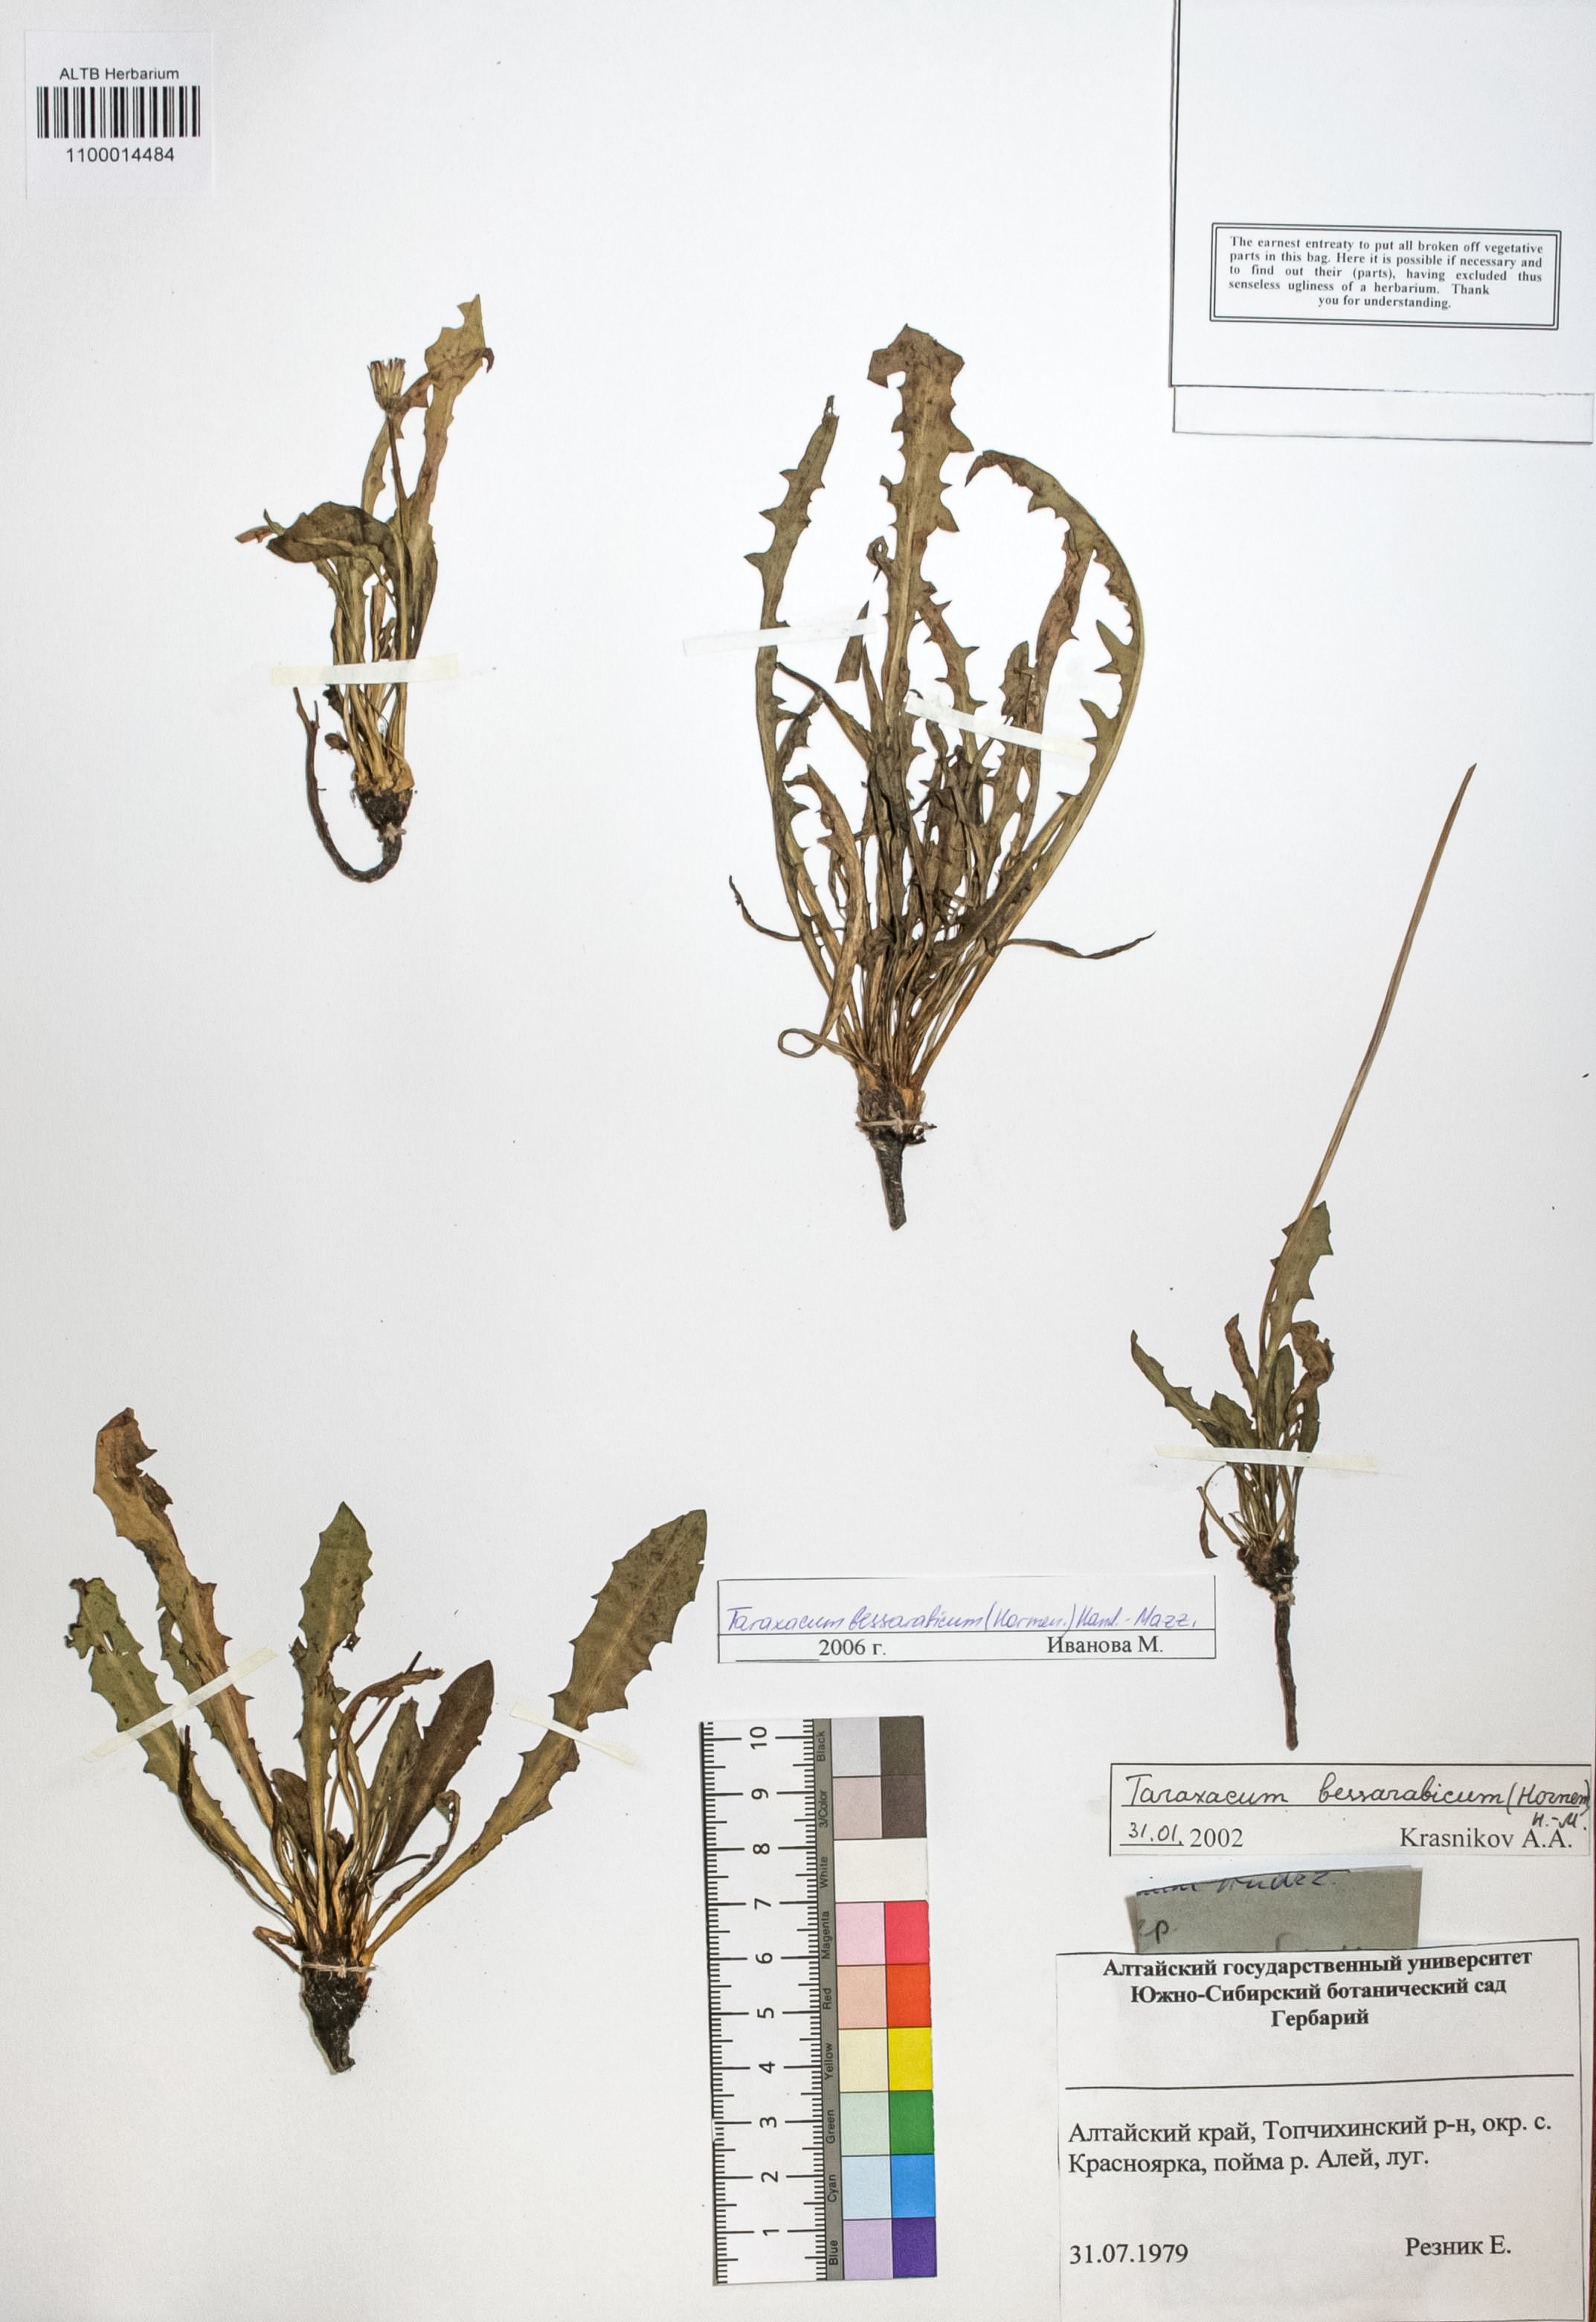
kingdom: Plantae
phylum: Tracheophyta
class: Magnoliopsida
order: Asterales
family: Asteraceae
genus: Taraxacum
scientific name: Taraxacum bessarabicum
